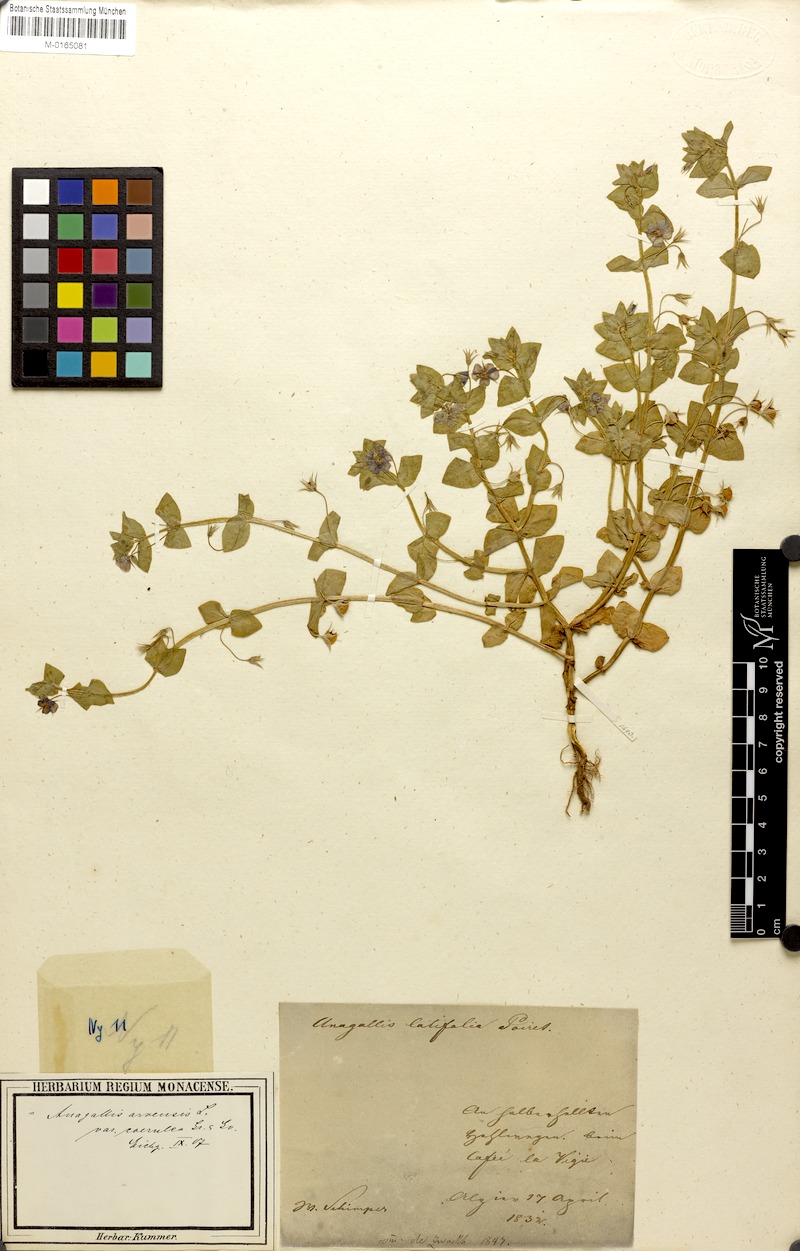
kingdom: Plantae
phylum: Tracheophyta
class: Magnoliopsida
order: Ericales
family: Primulaceae
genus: Lysimachia
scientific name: Lysimachia arvensis
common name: Scarlet pimpernel
